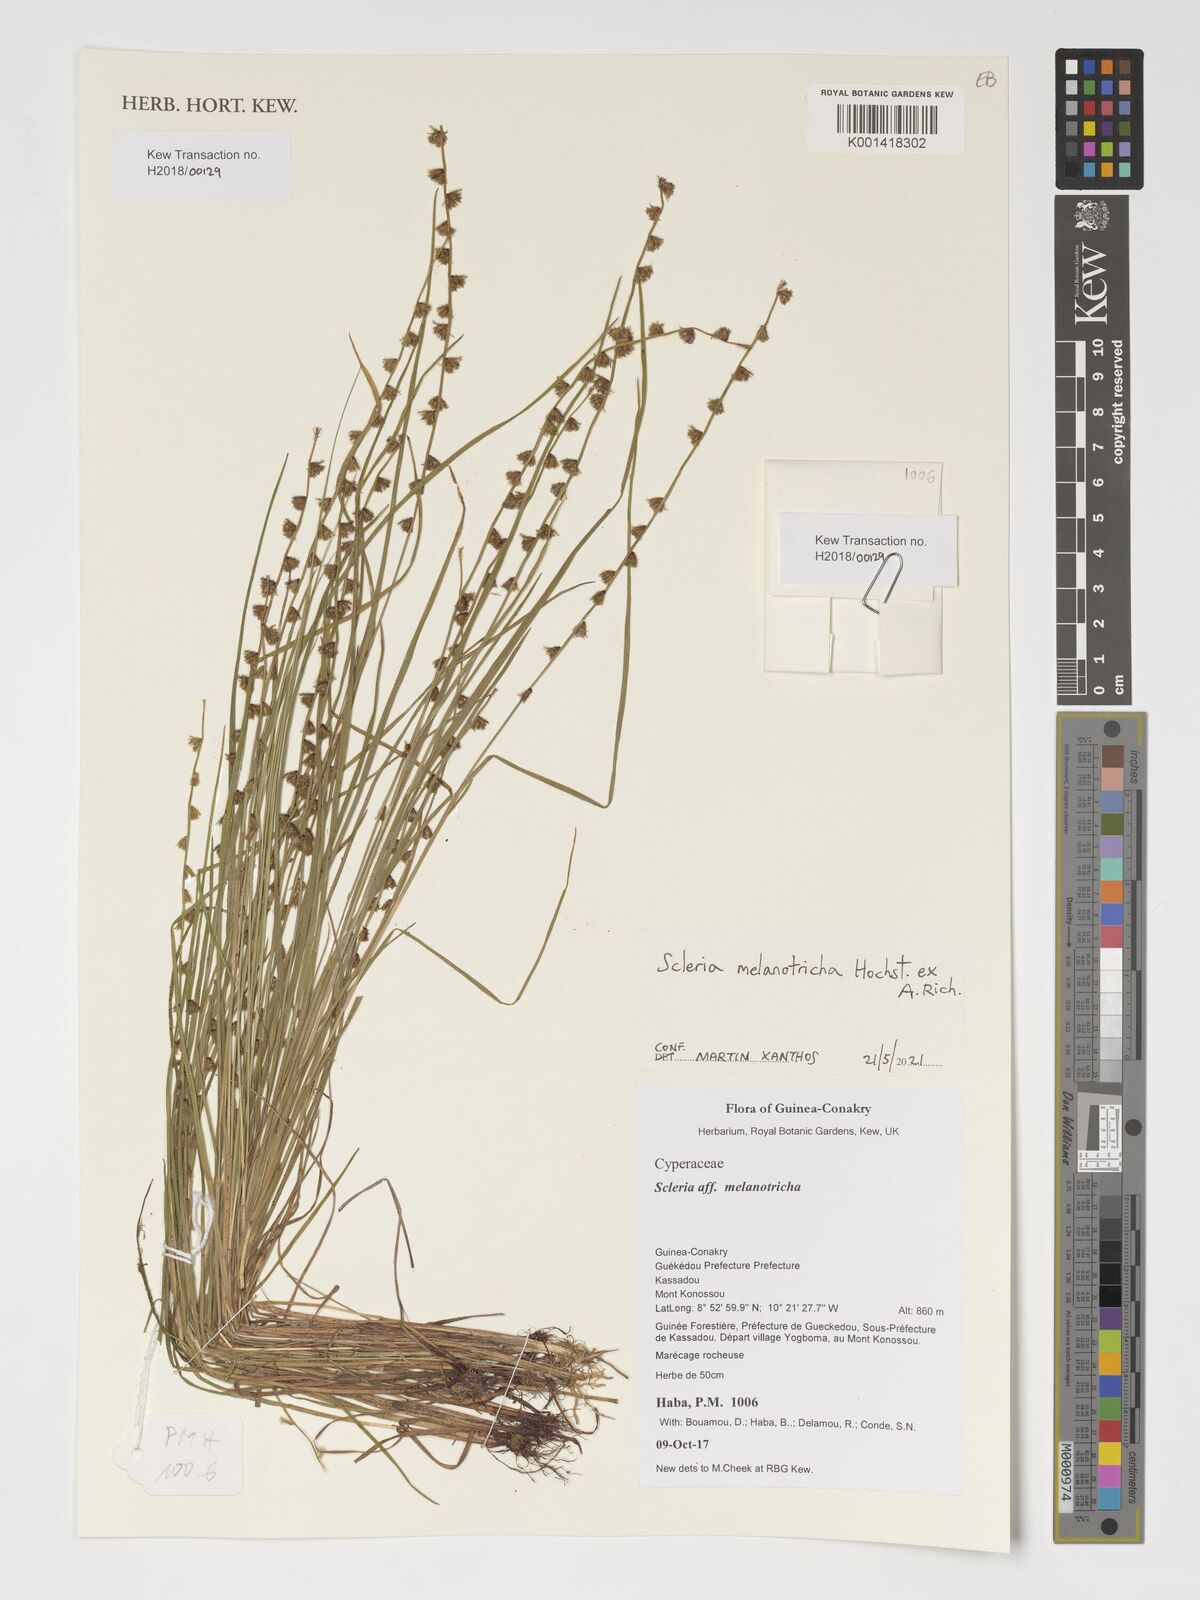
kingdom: Plantae
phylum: Tracheophyta
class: Liliopsida
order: Poales
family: Cyperaceae
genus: Scleria
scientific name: Scleria melanotricha
